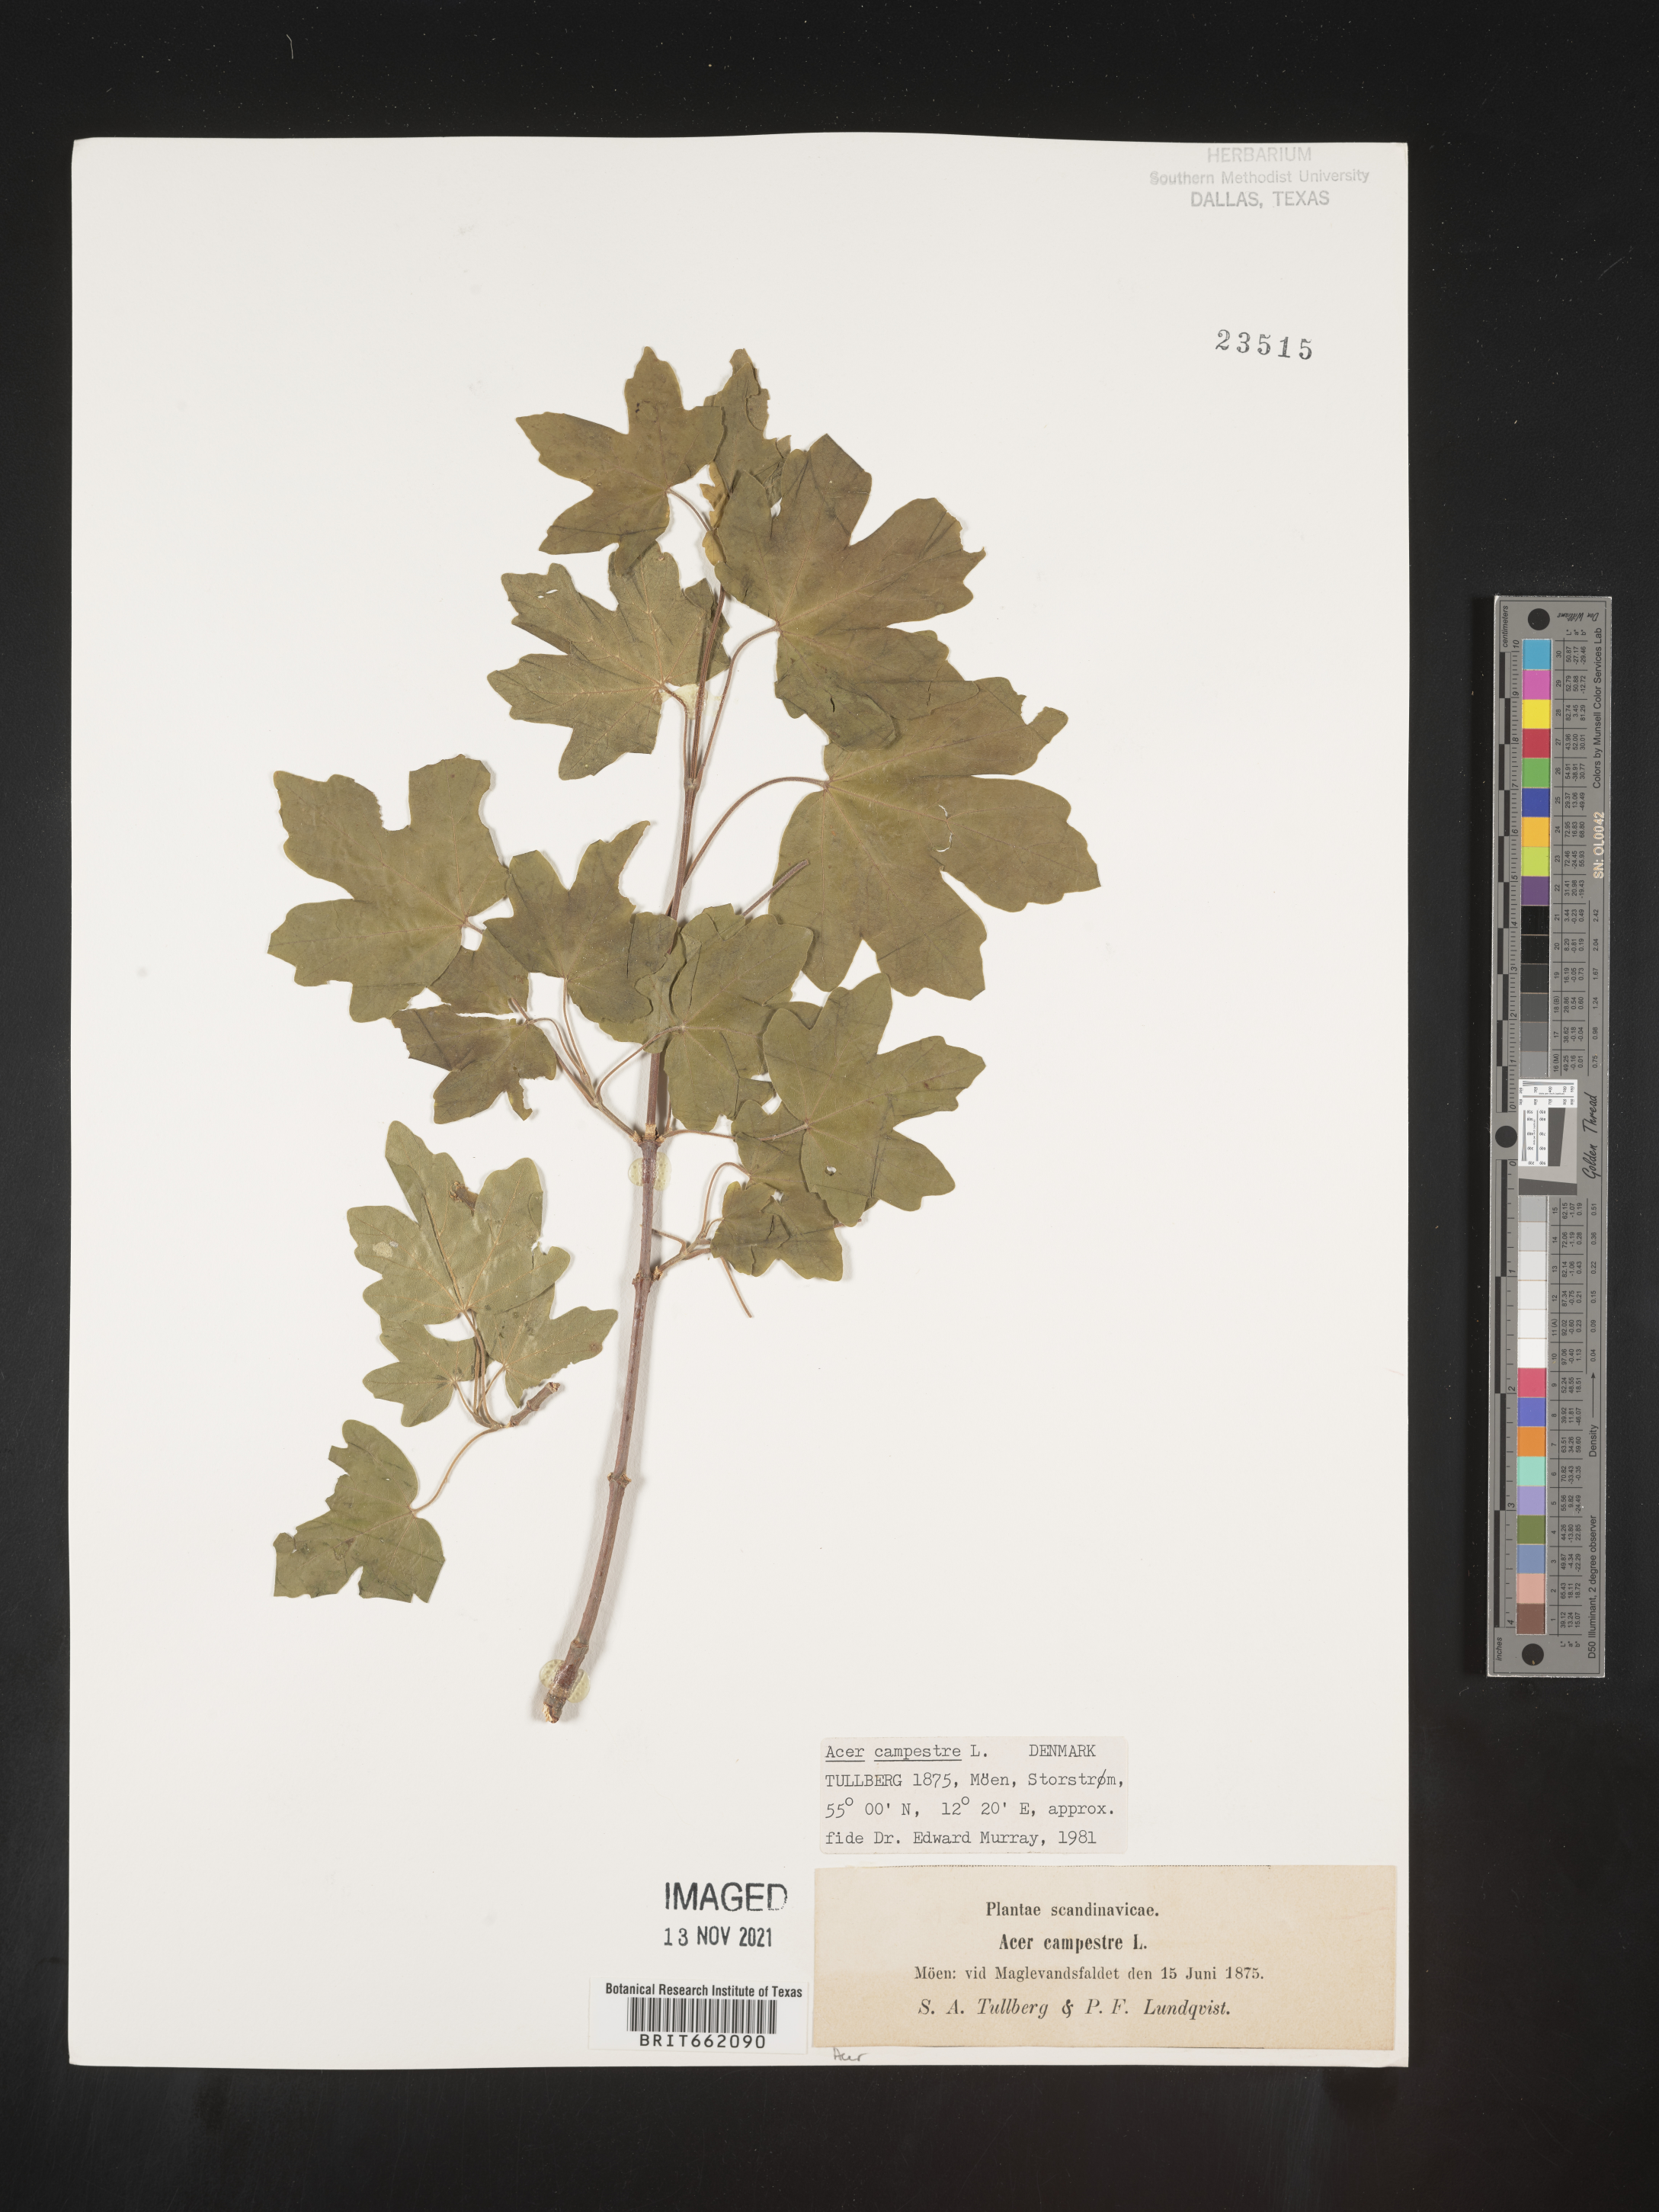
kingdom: Plantae
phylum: Tracheophyta
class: Magnoliopsida
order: Sapindales
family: Sapindaceae
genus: Acer
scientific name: Acer
